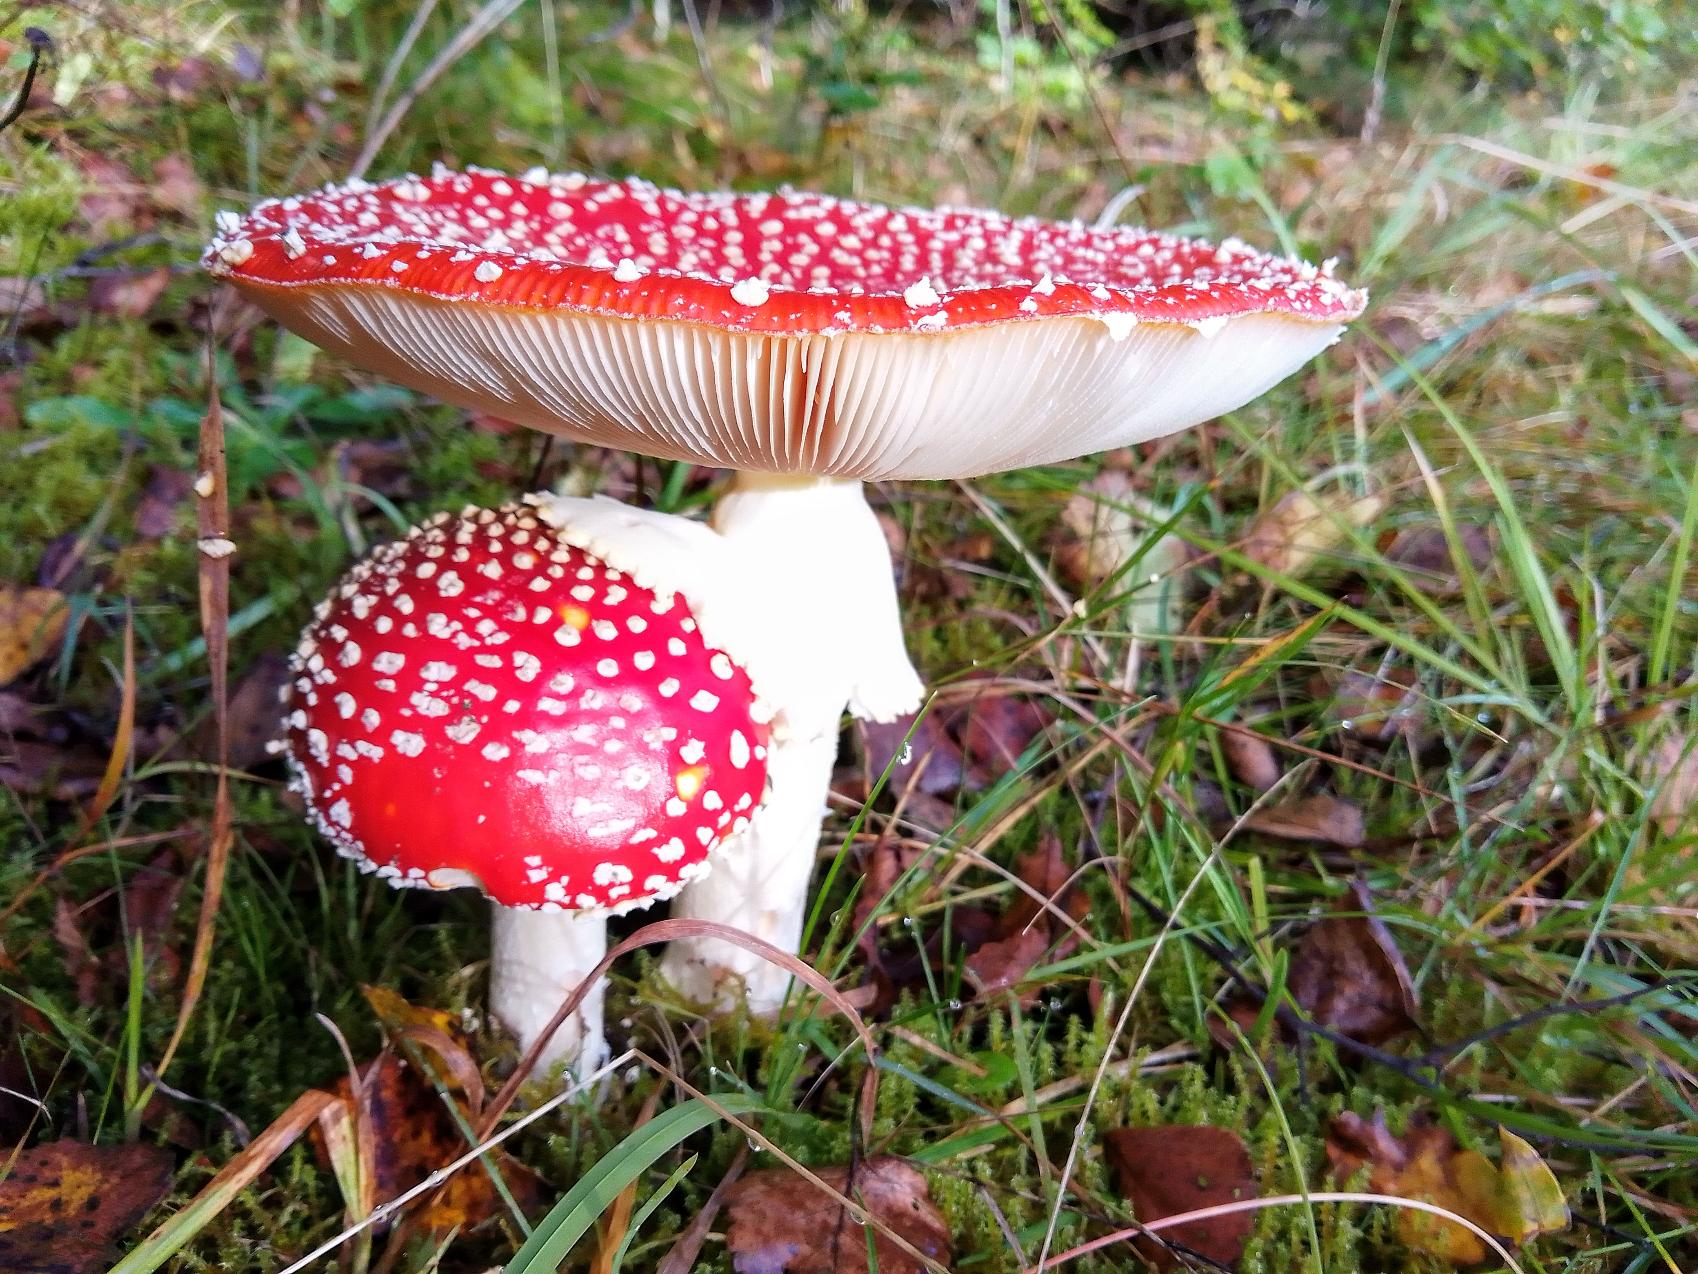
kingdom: Fungi
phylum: Basidiomycota
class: Agaricomycetes
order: Agaricales
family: Amanitaceae
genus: Amanita
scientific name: Amanita muscaria
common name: Rød fluesvamp
